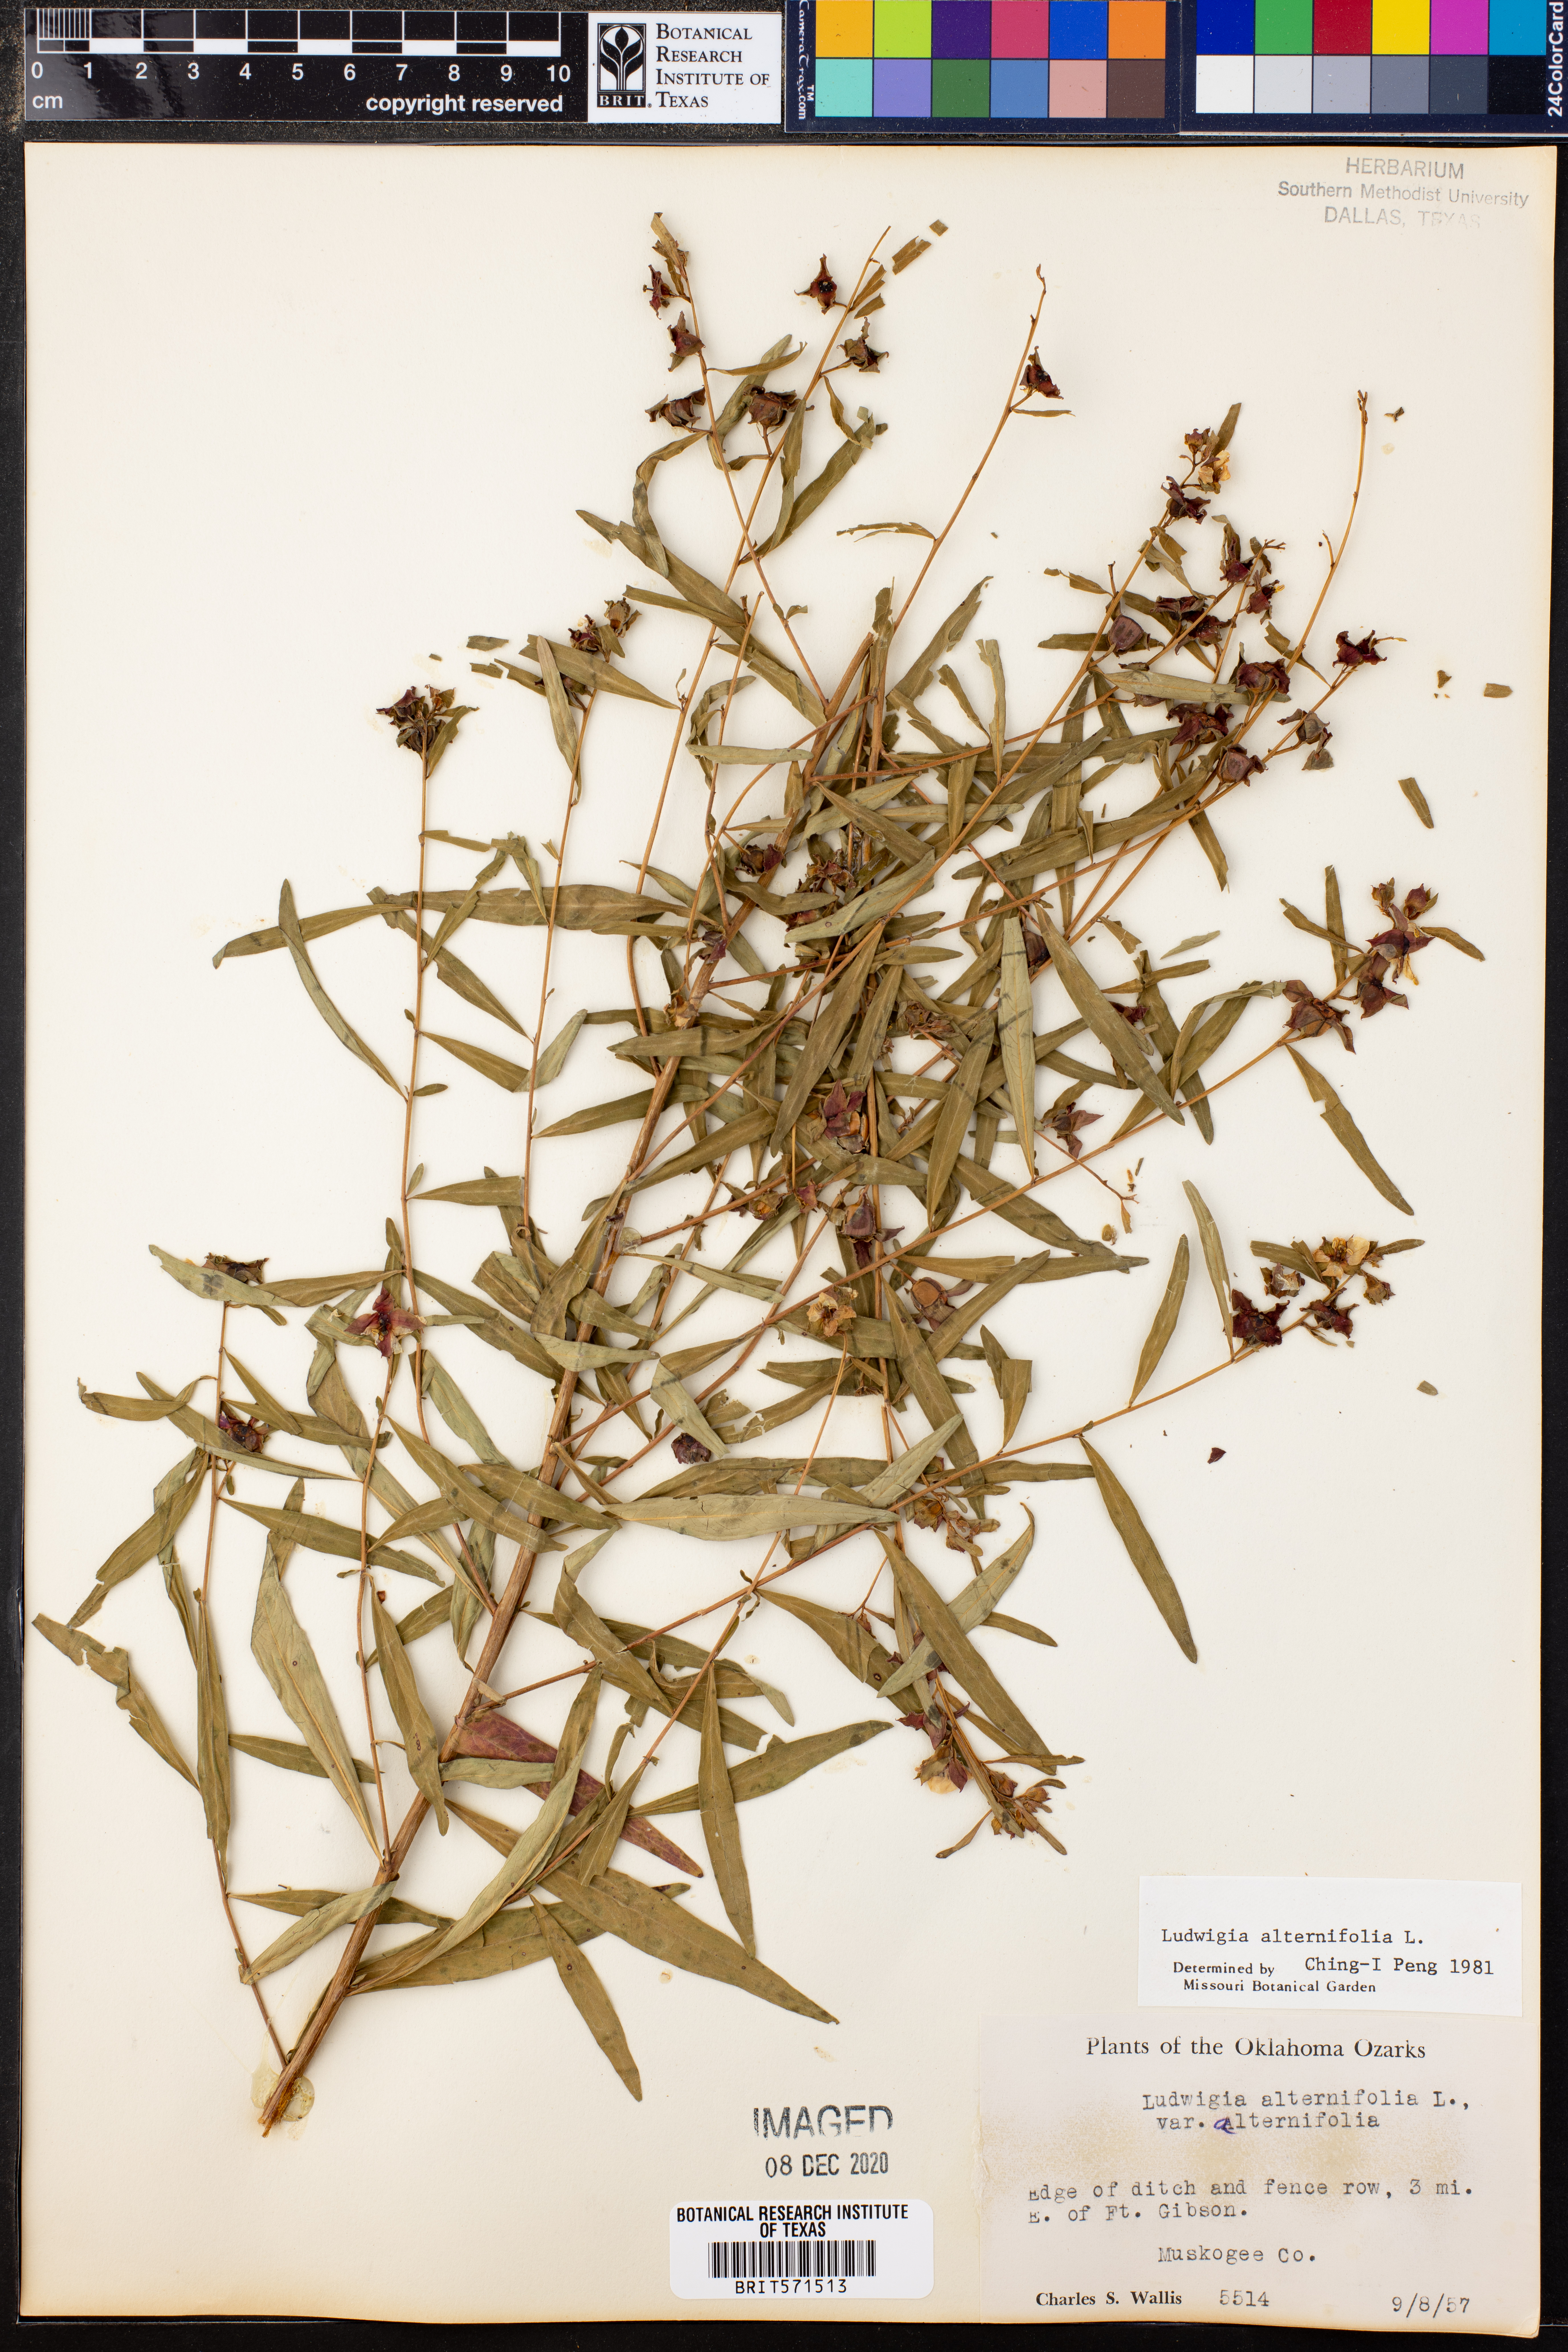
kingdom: Plantae
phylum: Tracheophyta
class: Magnoliopsida
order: Myrtales
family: Onagraceae
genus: Ludwigia
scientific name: Ludwigia alternifolia
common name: Rattlebox
